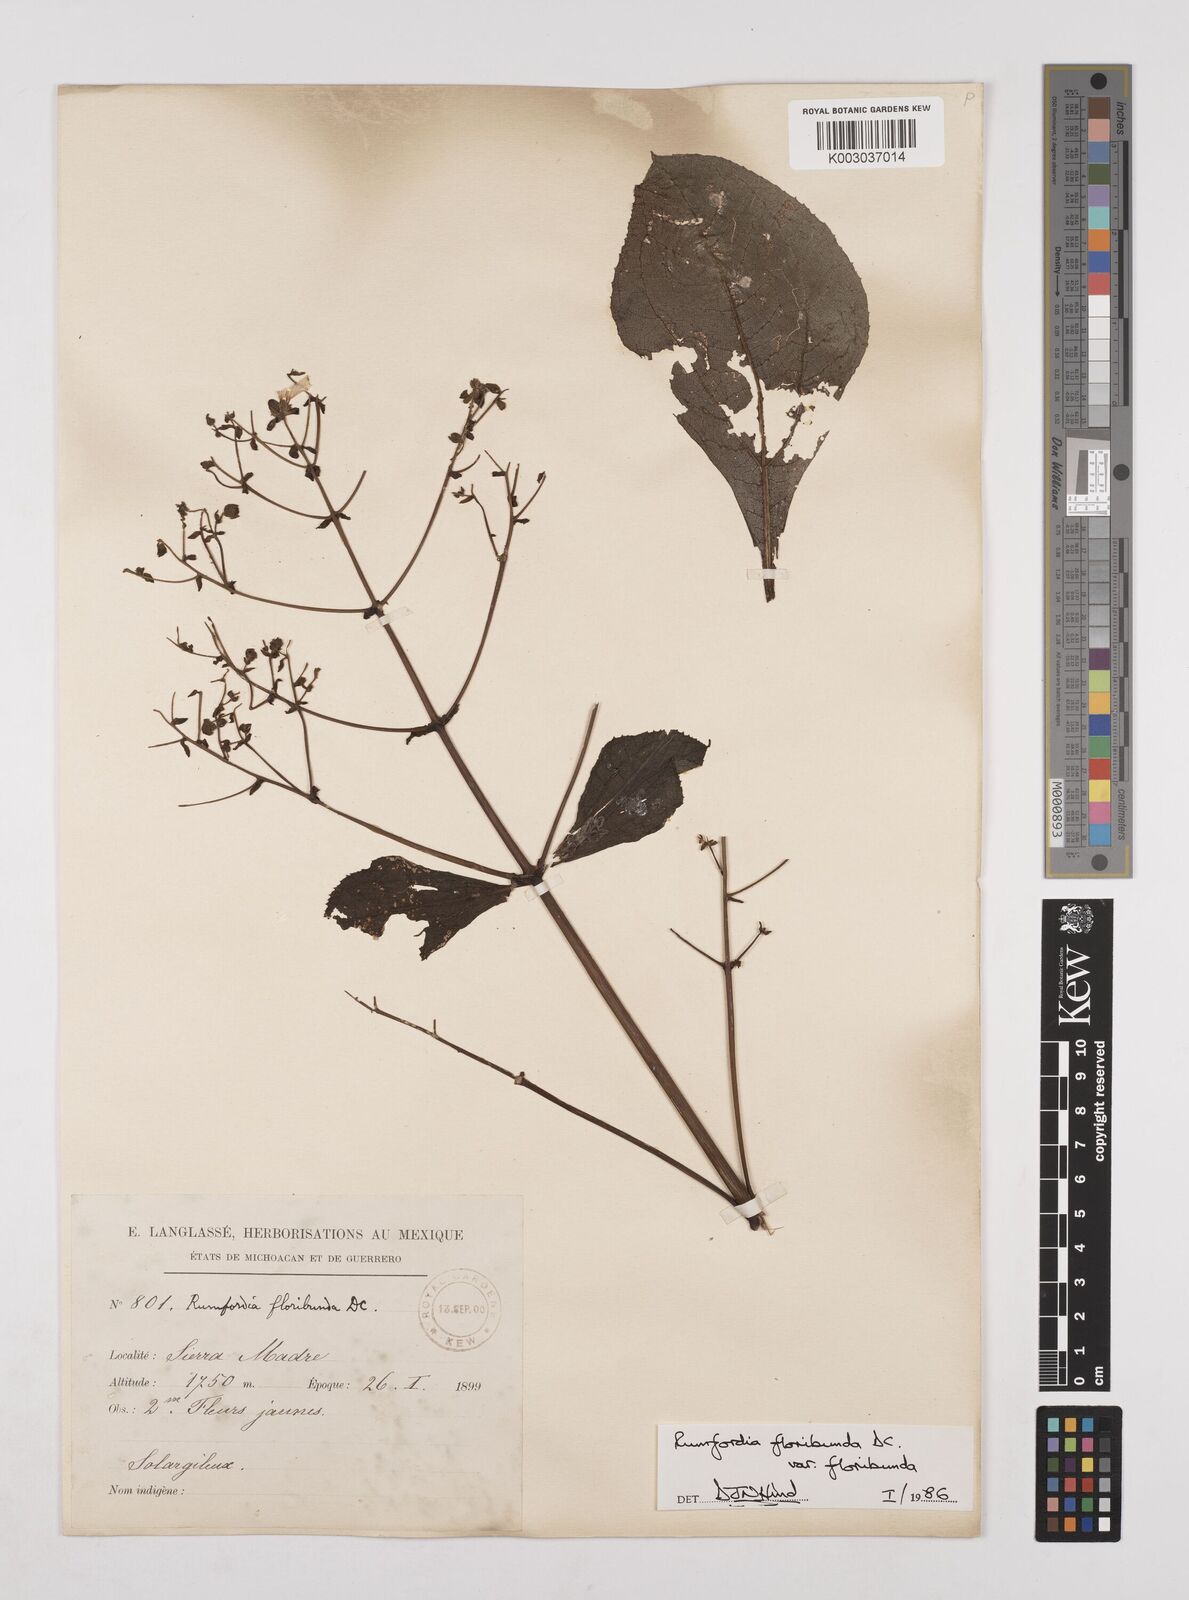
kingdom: Plantae
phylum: Tracheophyta
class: Magnoliopsida
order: Asterales
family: Asteraceae
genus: Rumfordia
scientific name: Rumfordia floribunda
